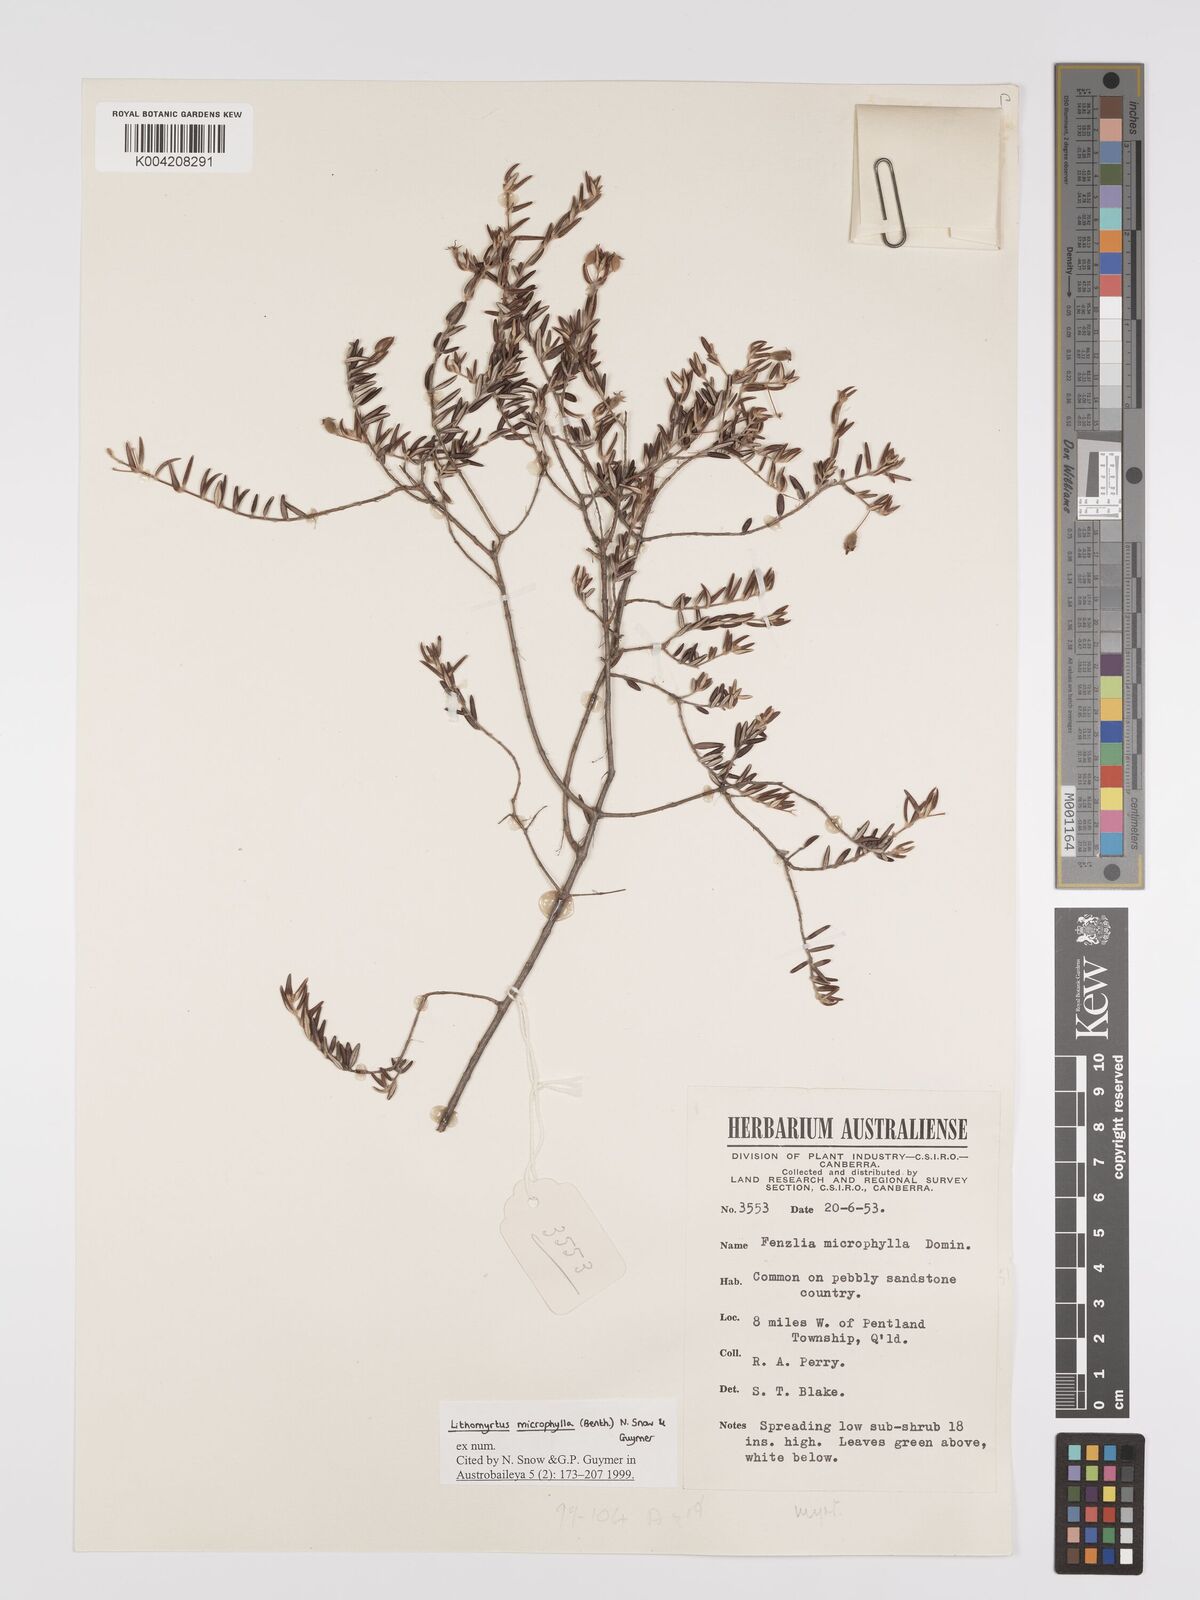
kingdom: Plantae
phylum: Tracheophyta
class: Magnoliopsida
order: Myrtales
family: Myrtaceae
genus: Lithomyrtus
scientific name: Lithomyrtus microphylla
